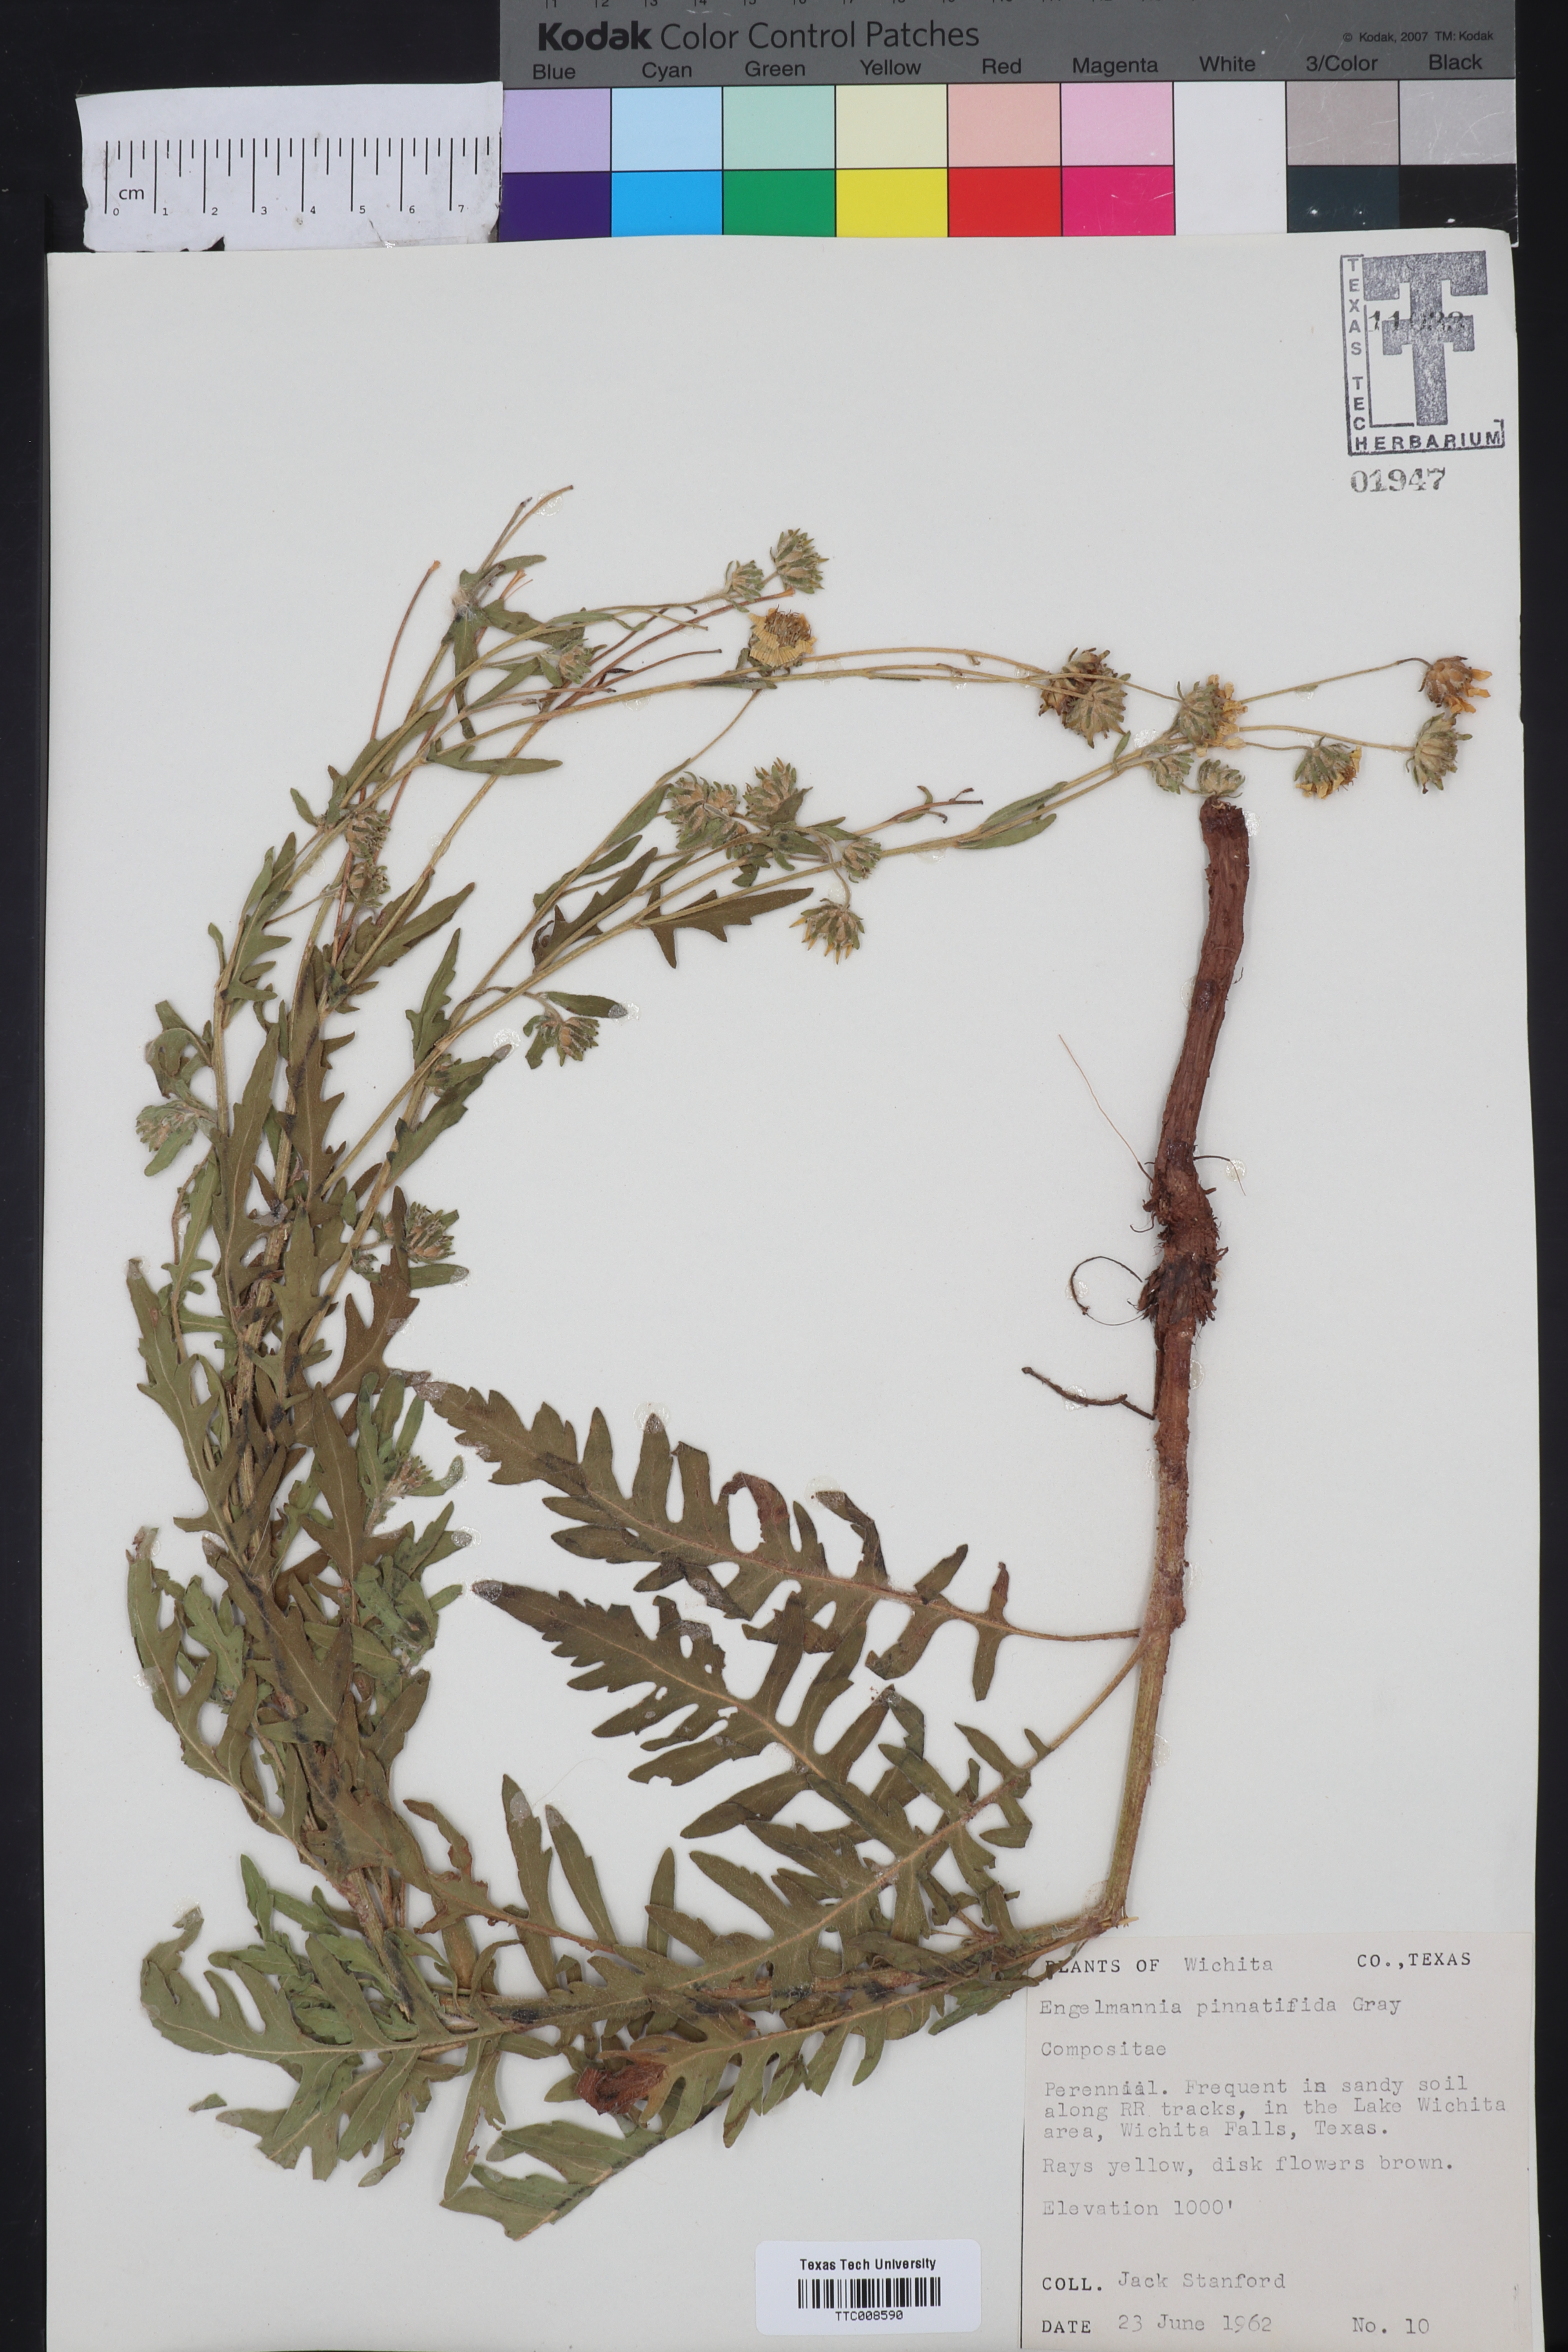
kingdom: Plantae
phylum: Tracheophyta
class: Magnoliopsida
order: Asterales
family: Asteraceae
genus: Engelmannia
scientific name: Engelmannia peristenia
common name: Engelmann's daisy
